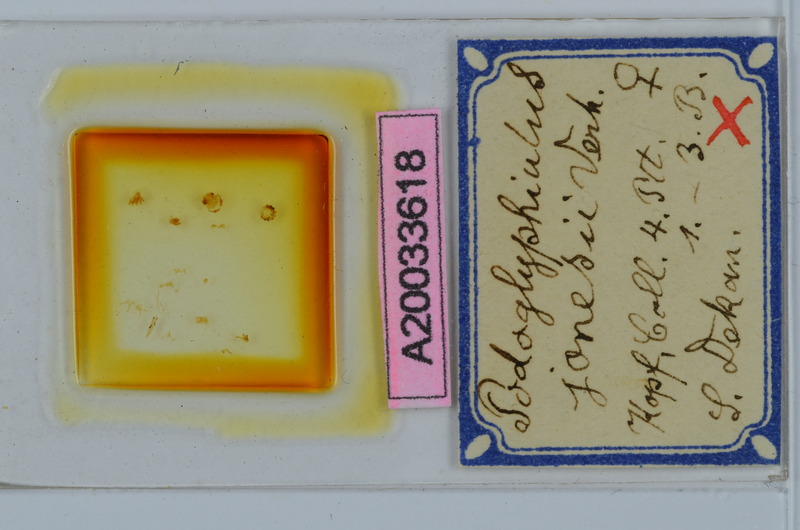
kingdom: Animalia
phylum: Arthropoda
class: Diplopoda
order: Spirostreptida
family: Cambalopsidae
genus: Podoglyphiulus
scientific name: Podoglyphiulus jonesii
